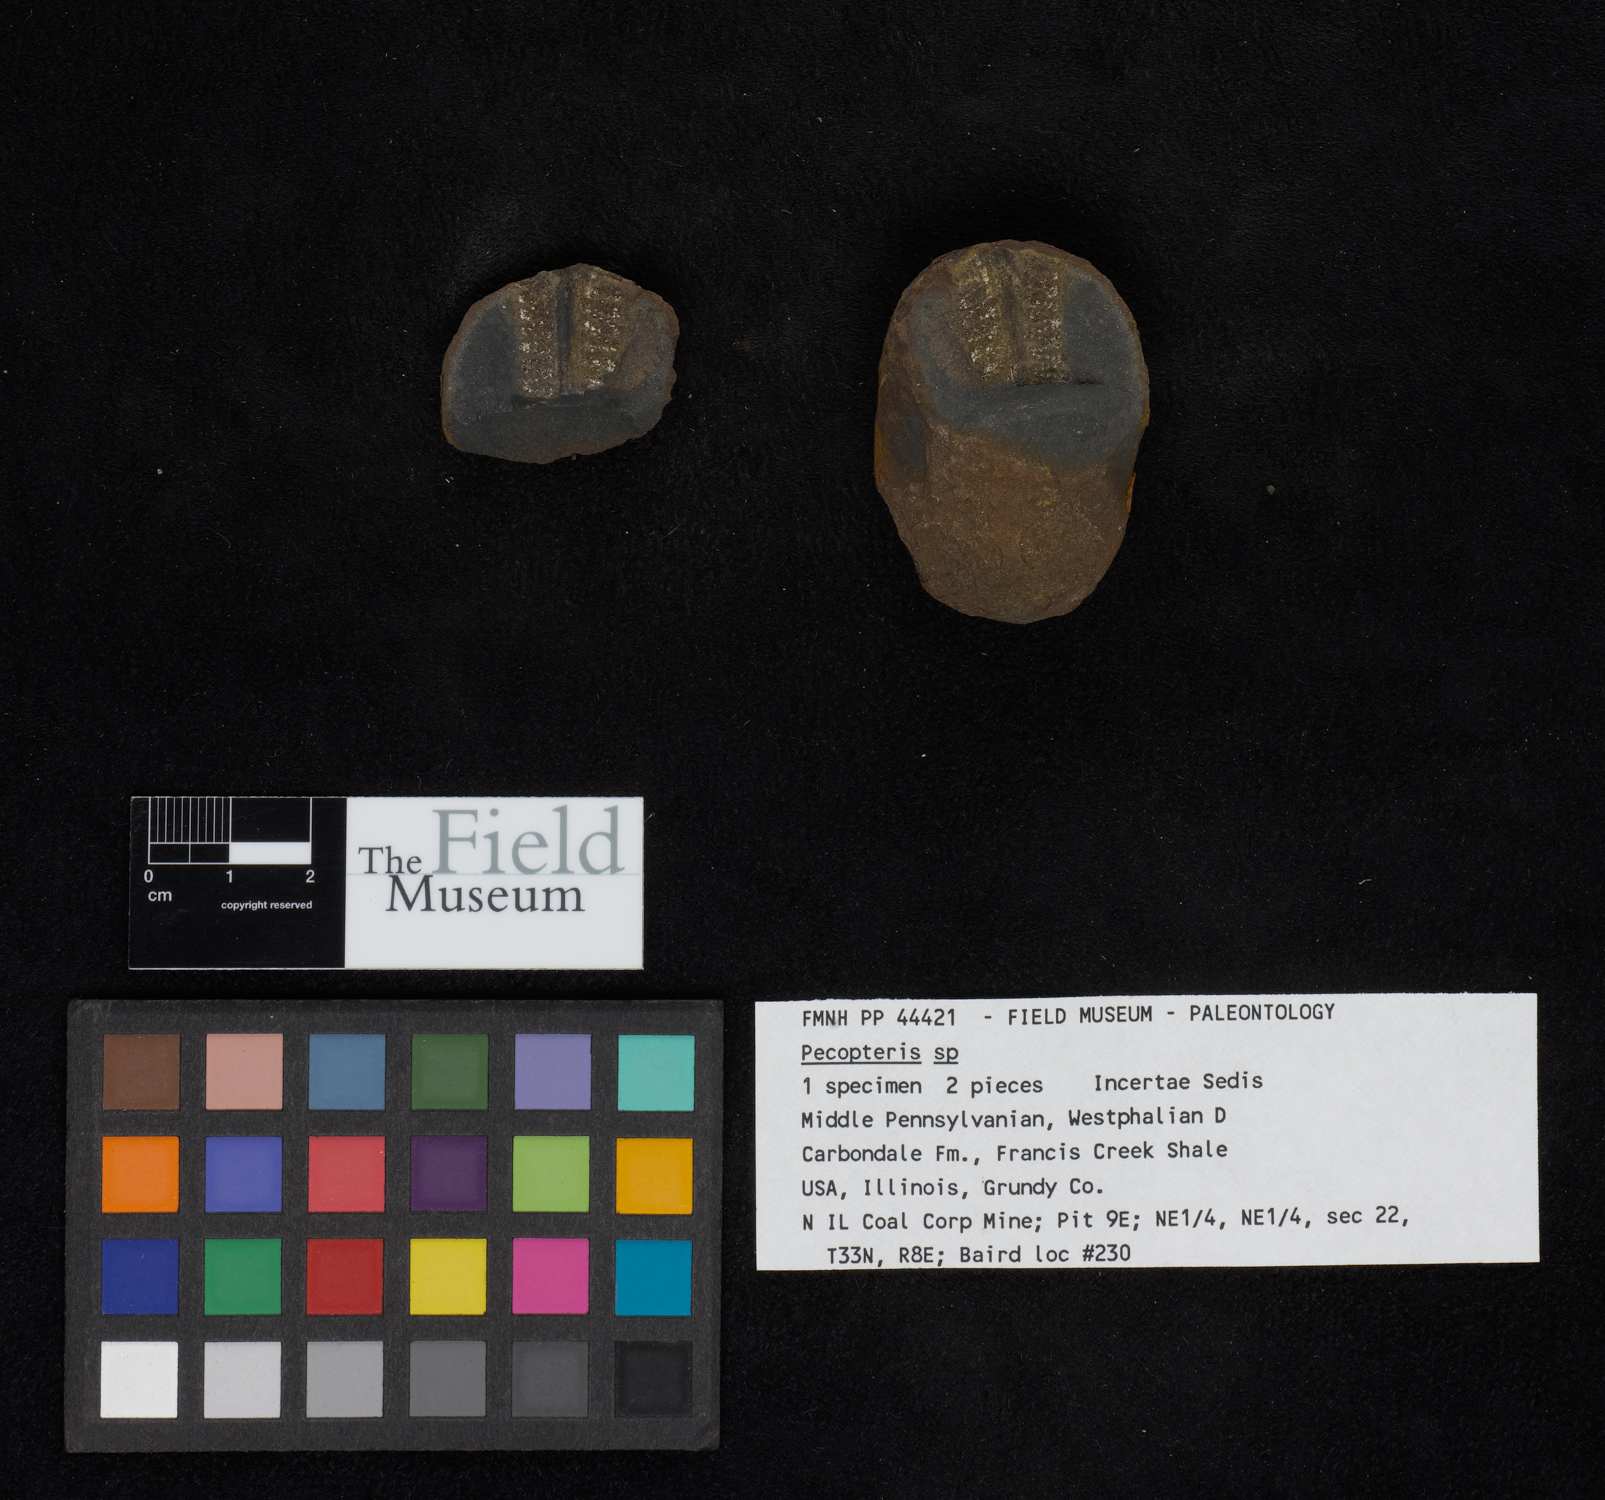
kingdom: Plantae
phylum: Tracheophyta
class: Polypodiopsida
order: Marattiales
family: Asterothecaceae
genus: Pecopteris
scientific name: Pecopteris
